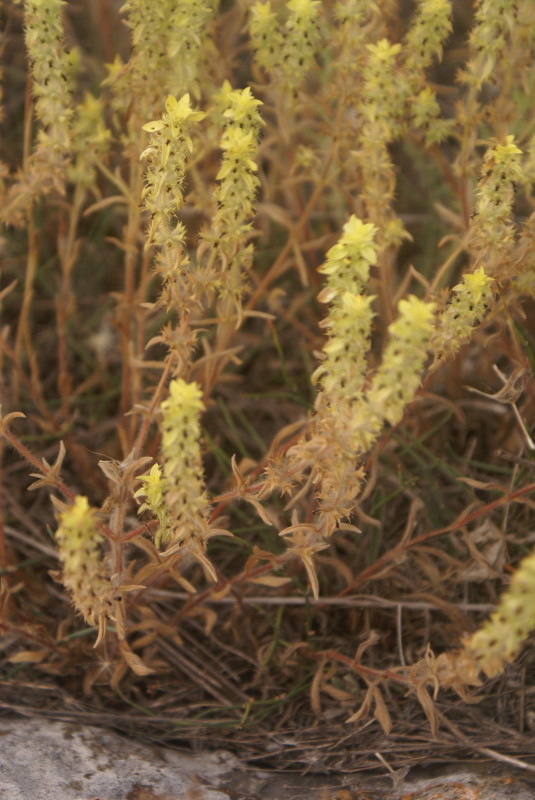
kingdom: Plantae
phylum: Tracheophyta
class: Magnoliopsida
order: Lamiales
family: Lamiaceae
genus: Sideritis
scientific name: Sideritis montana
